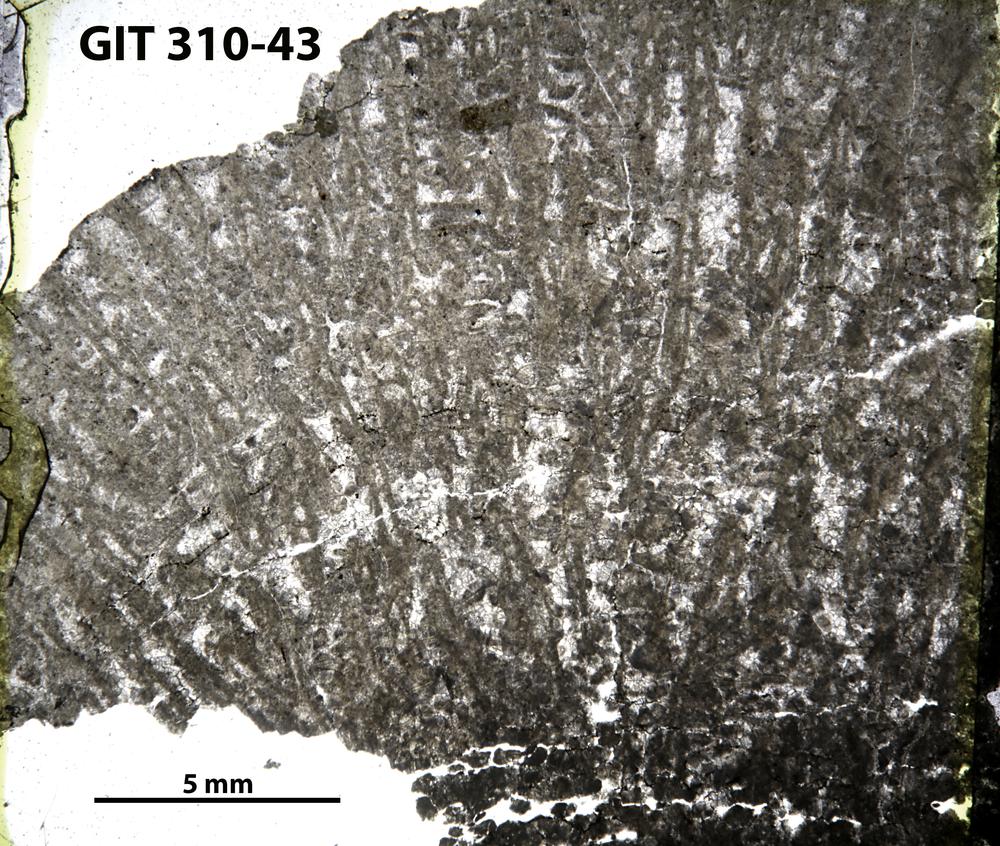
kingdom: Animalia
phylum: Porifera
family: Labechiidae
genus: Stromatocerium
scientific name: Stromatocerium
